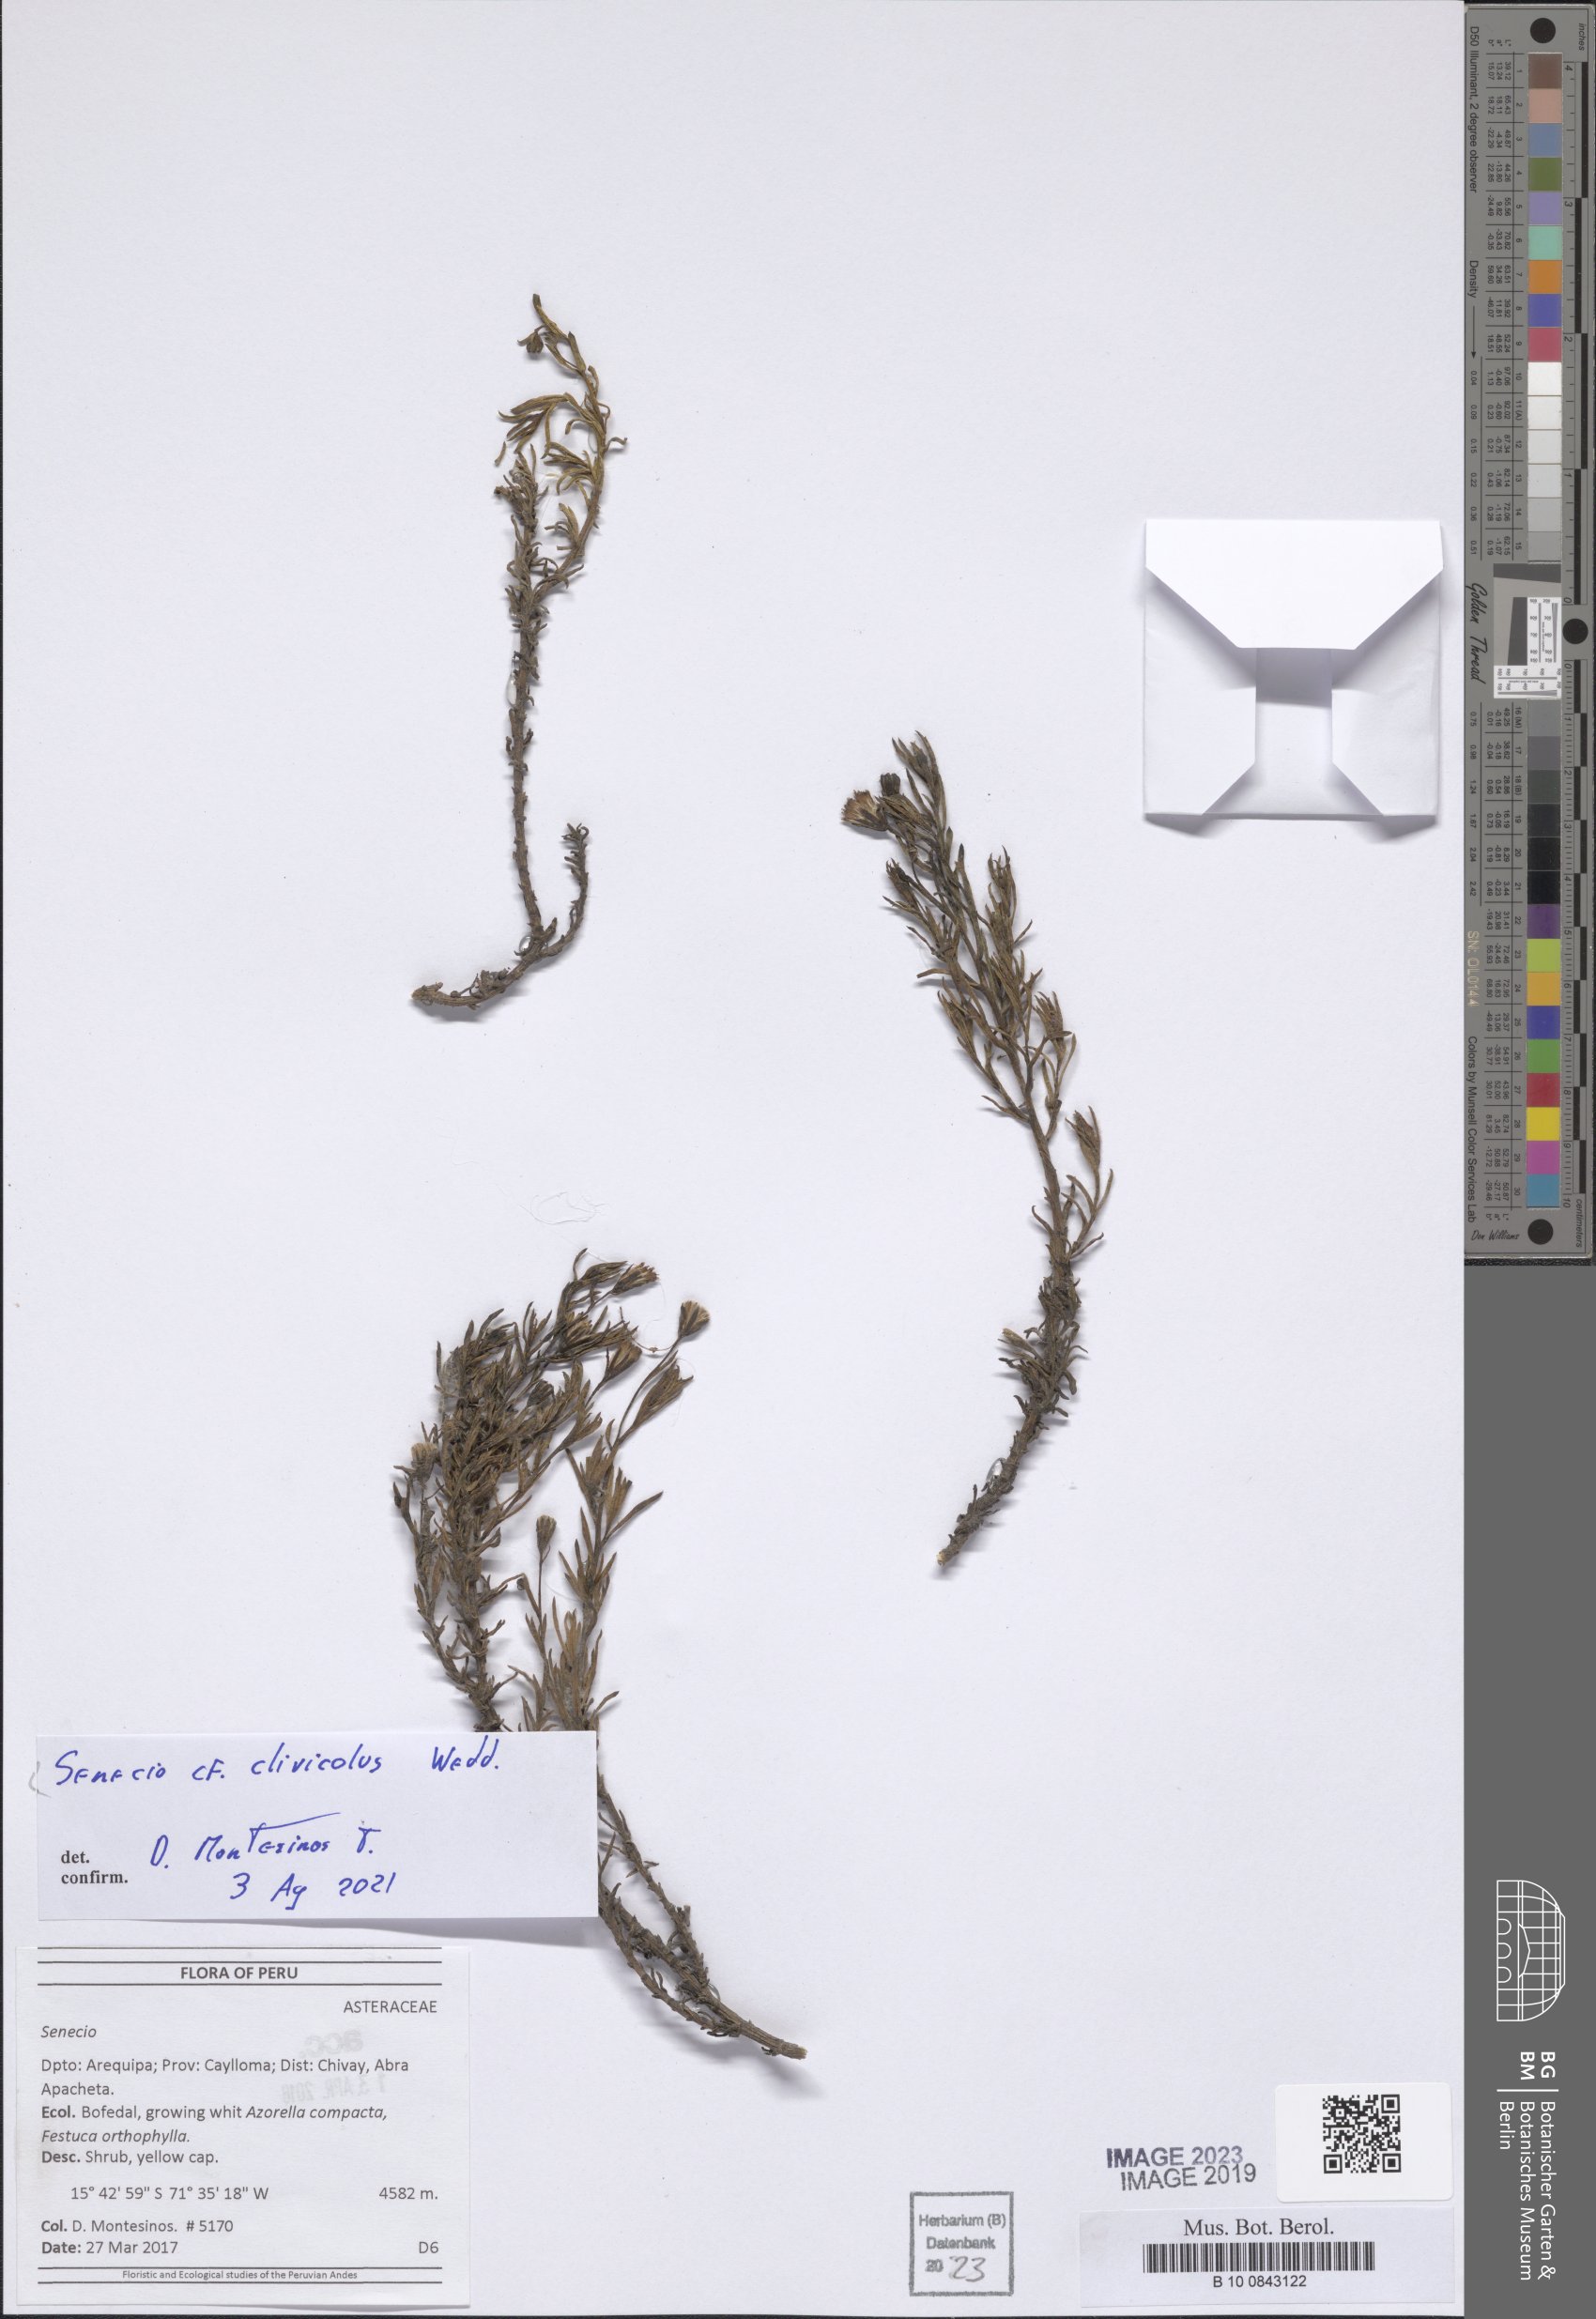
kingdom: Plantae
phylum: Tracheophyta
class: Magnoliopsida
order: Asterales
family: Asteraceae
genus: Senecio
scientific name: Senecio clivicola
